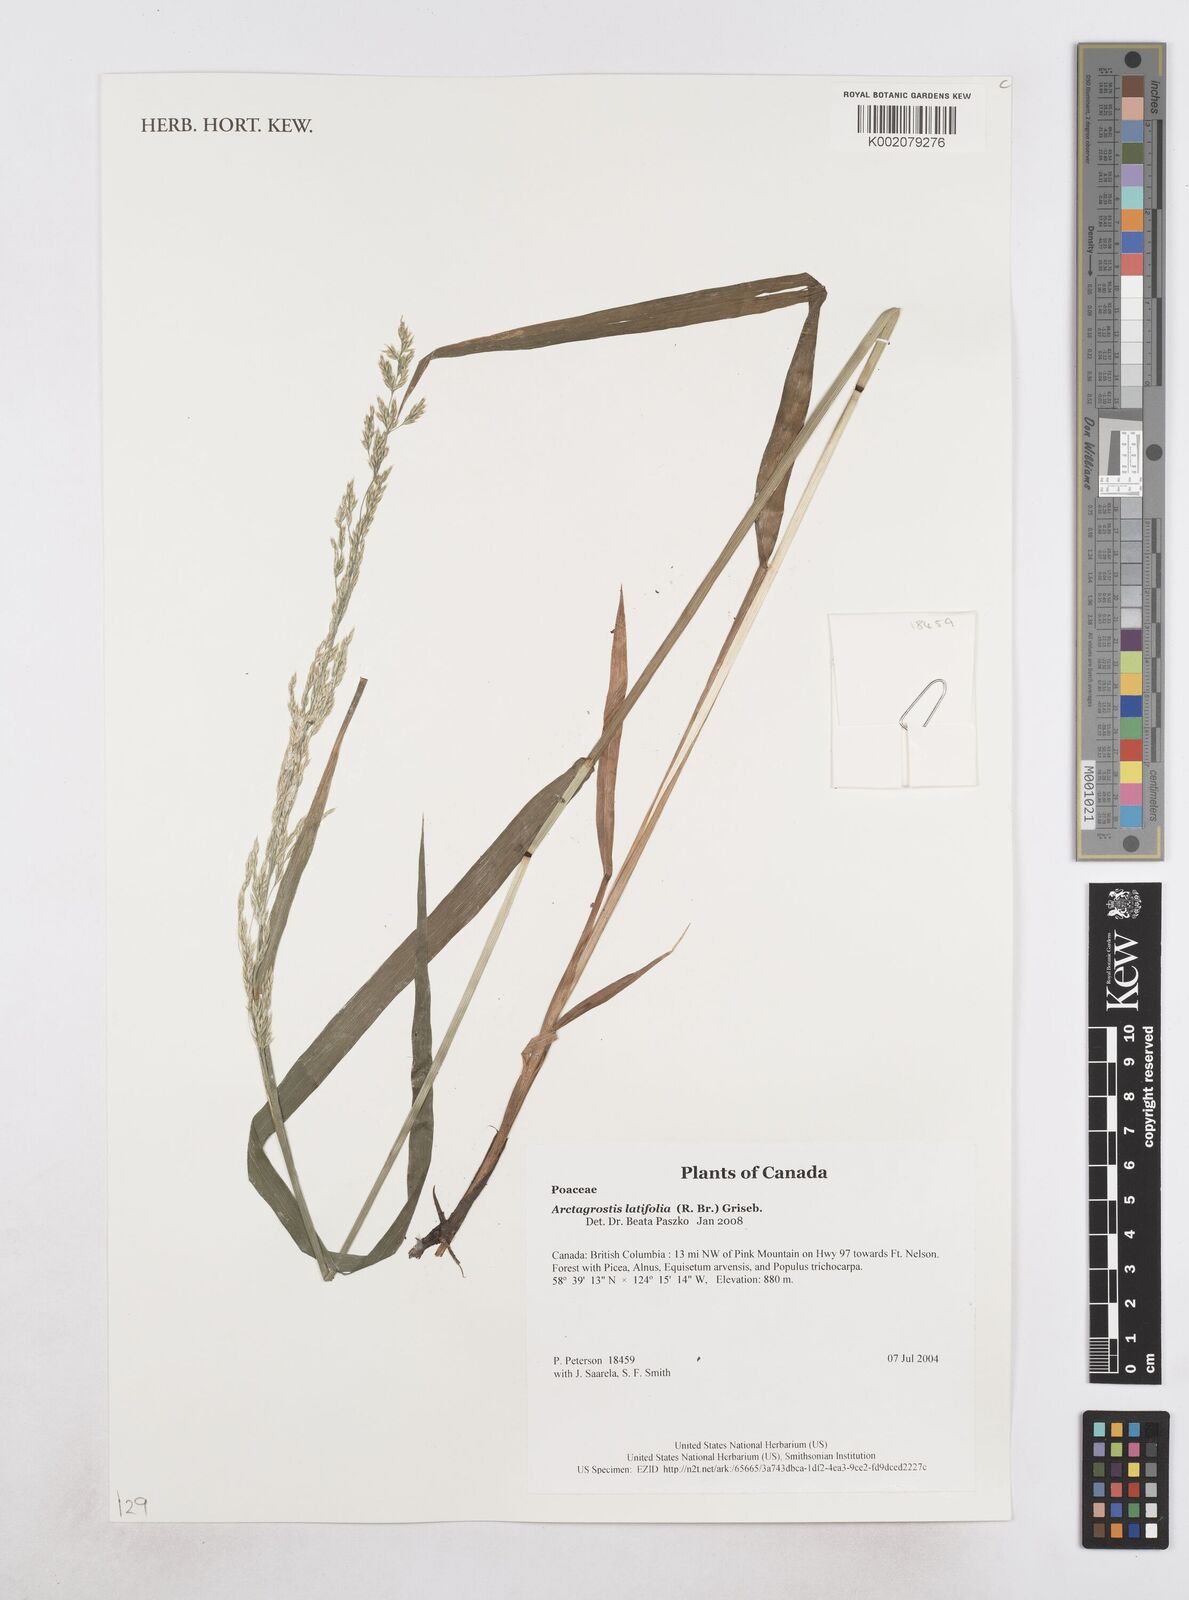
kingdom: Plantae
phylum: Tracheophyta
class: Liliopsida
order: Poales
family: Poaceae
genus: Arctagrostis
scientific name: Arctagrostis latifolia
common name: Arctic grass
